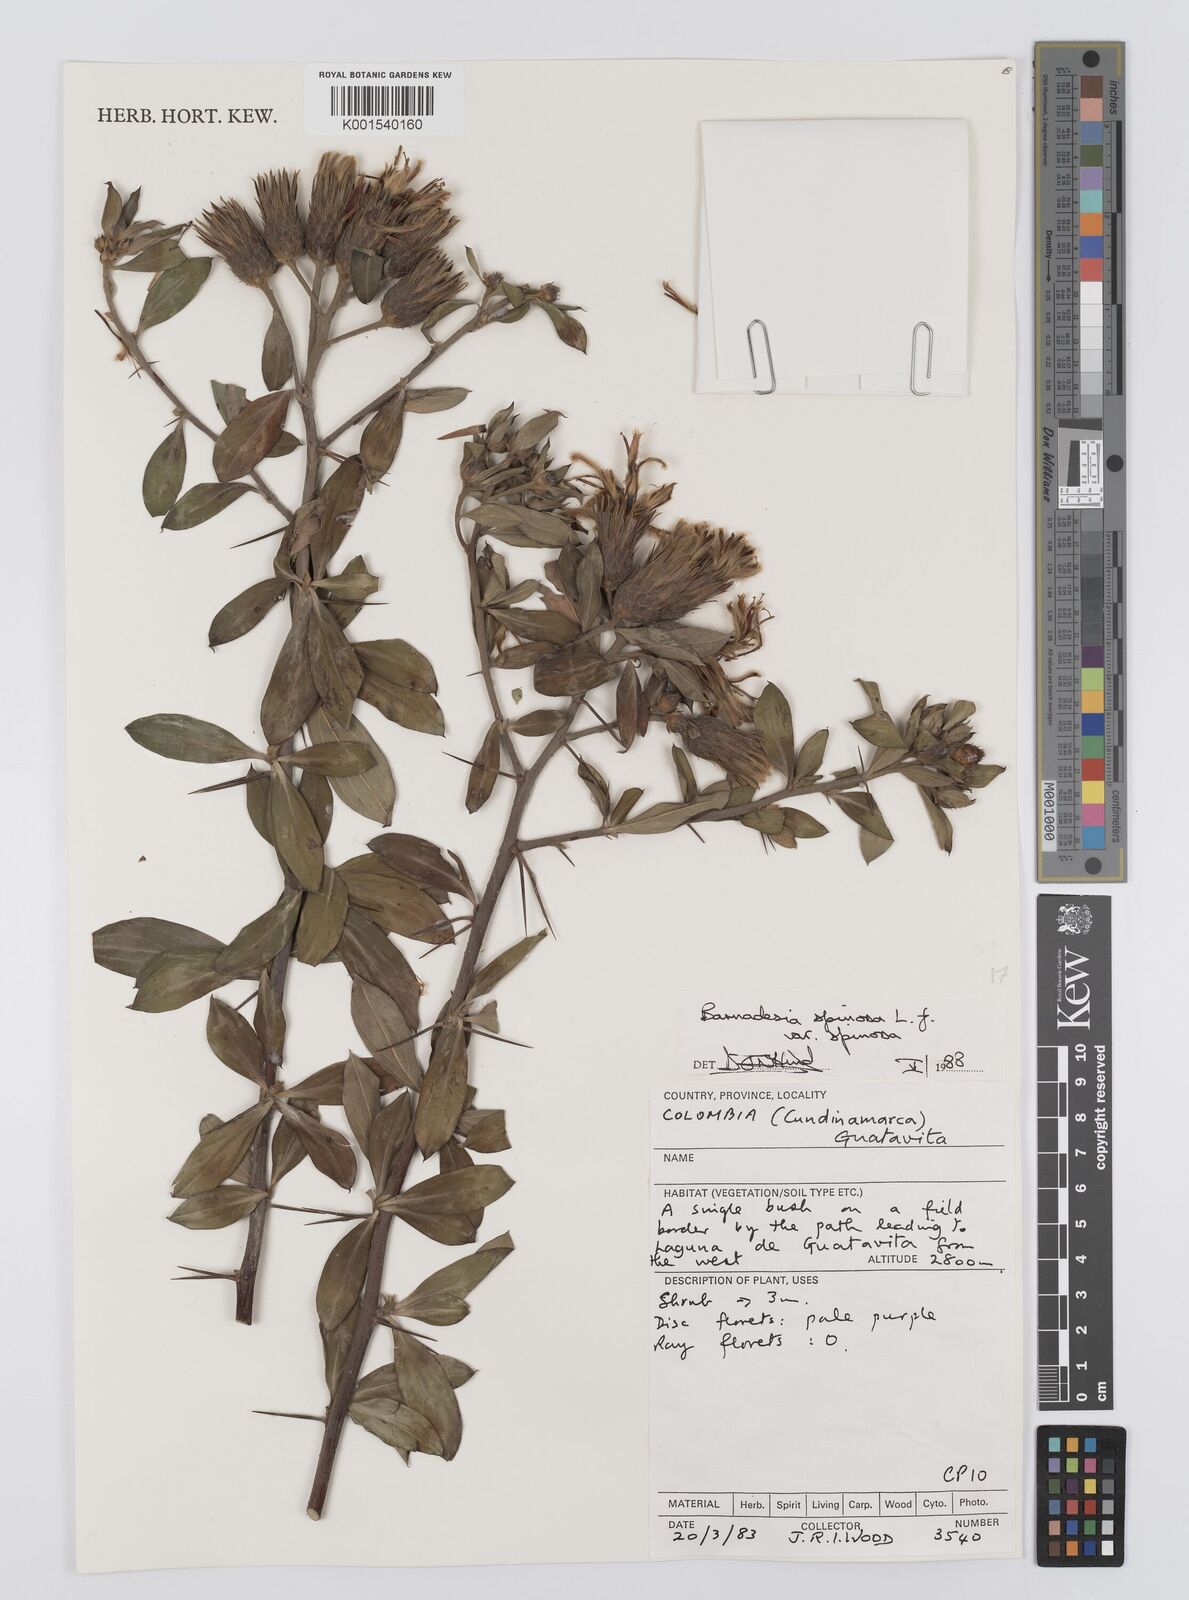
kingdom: Plantae
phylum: Tracheophyta
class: Magnoliopsida
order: Asterales
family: Asteraceae
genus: Barnadesia
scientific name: Barnadesia spinosa
